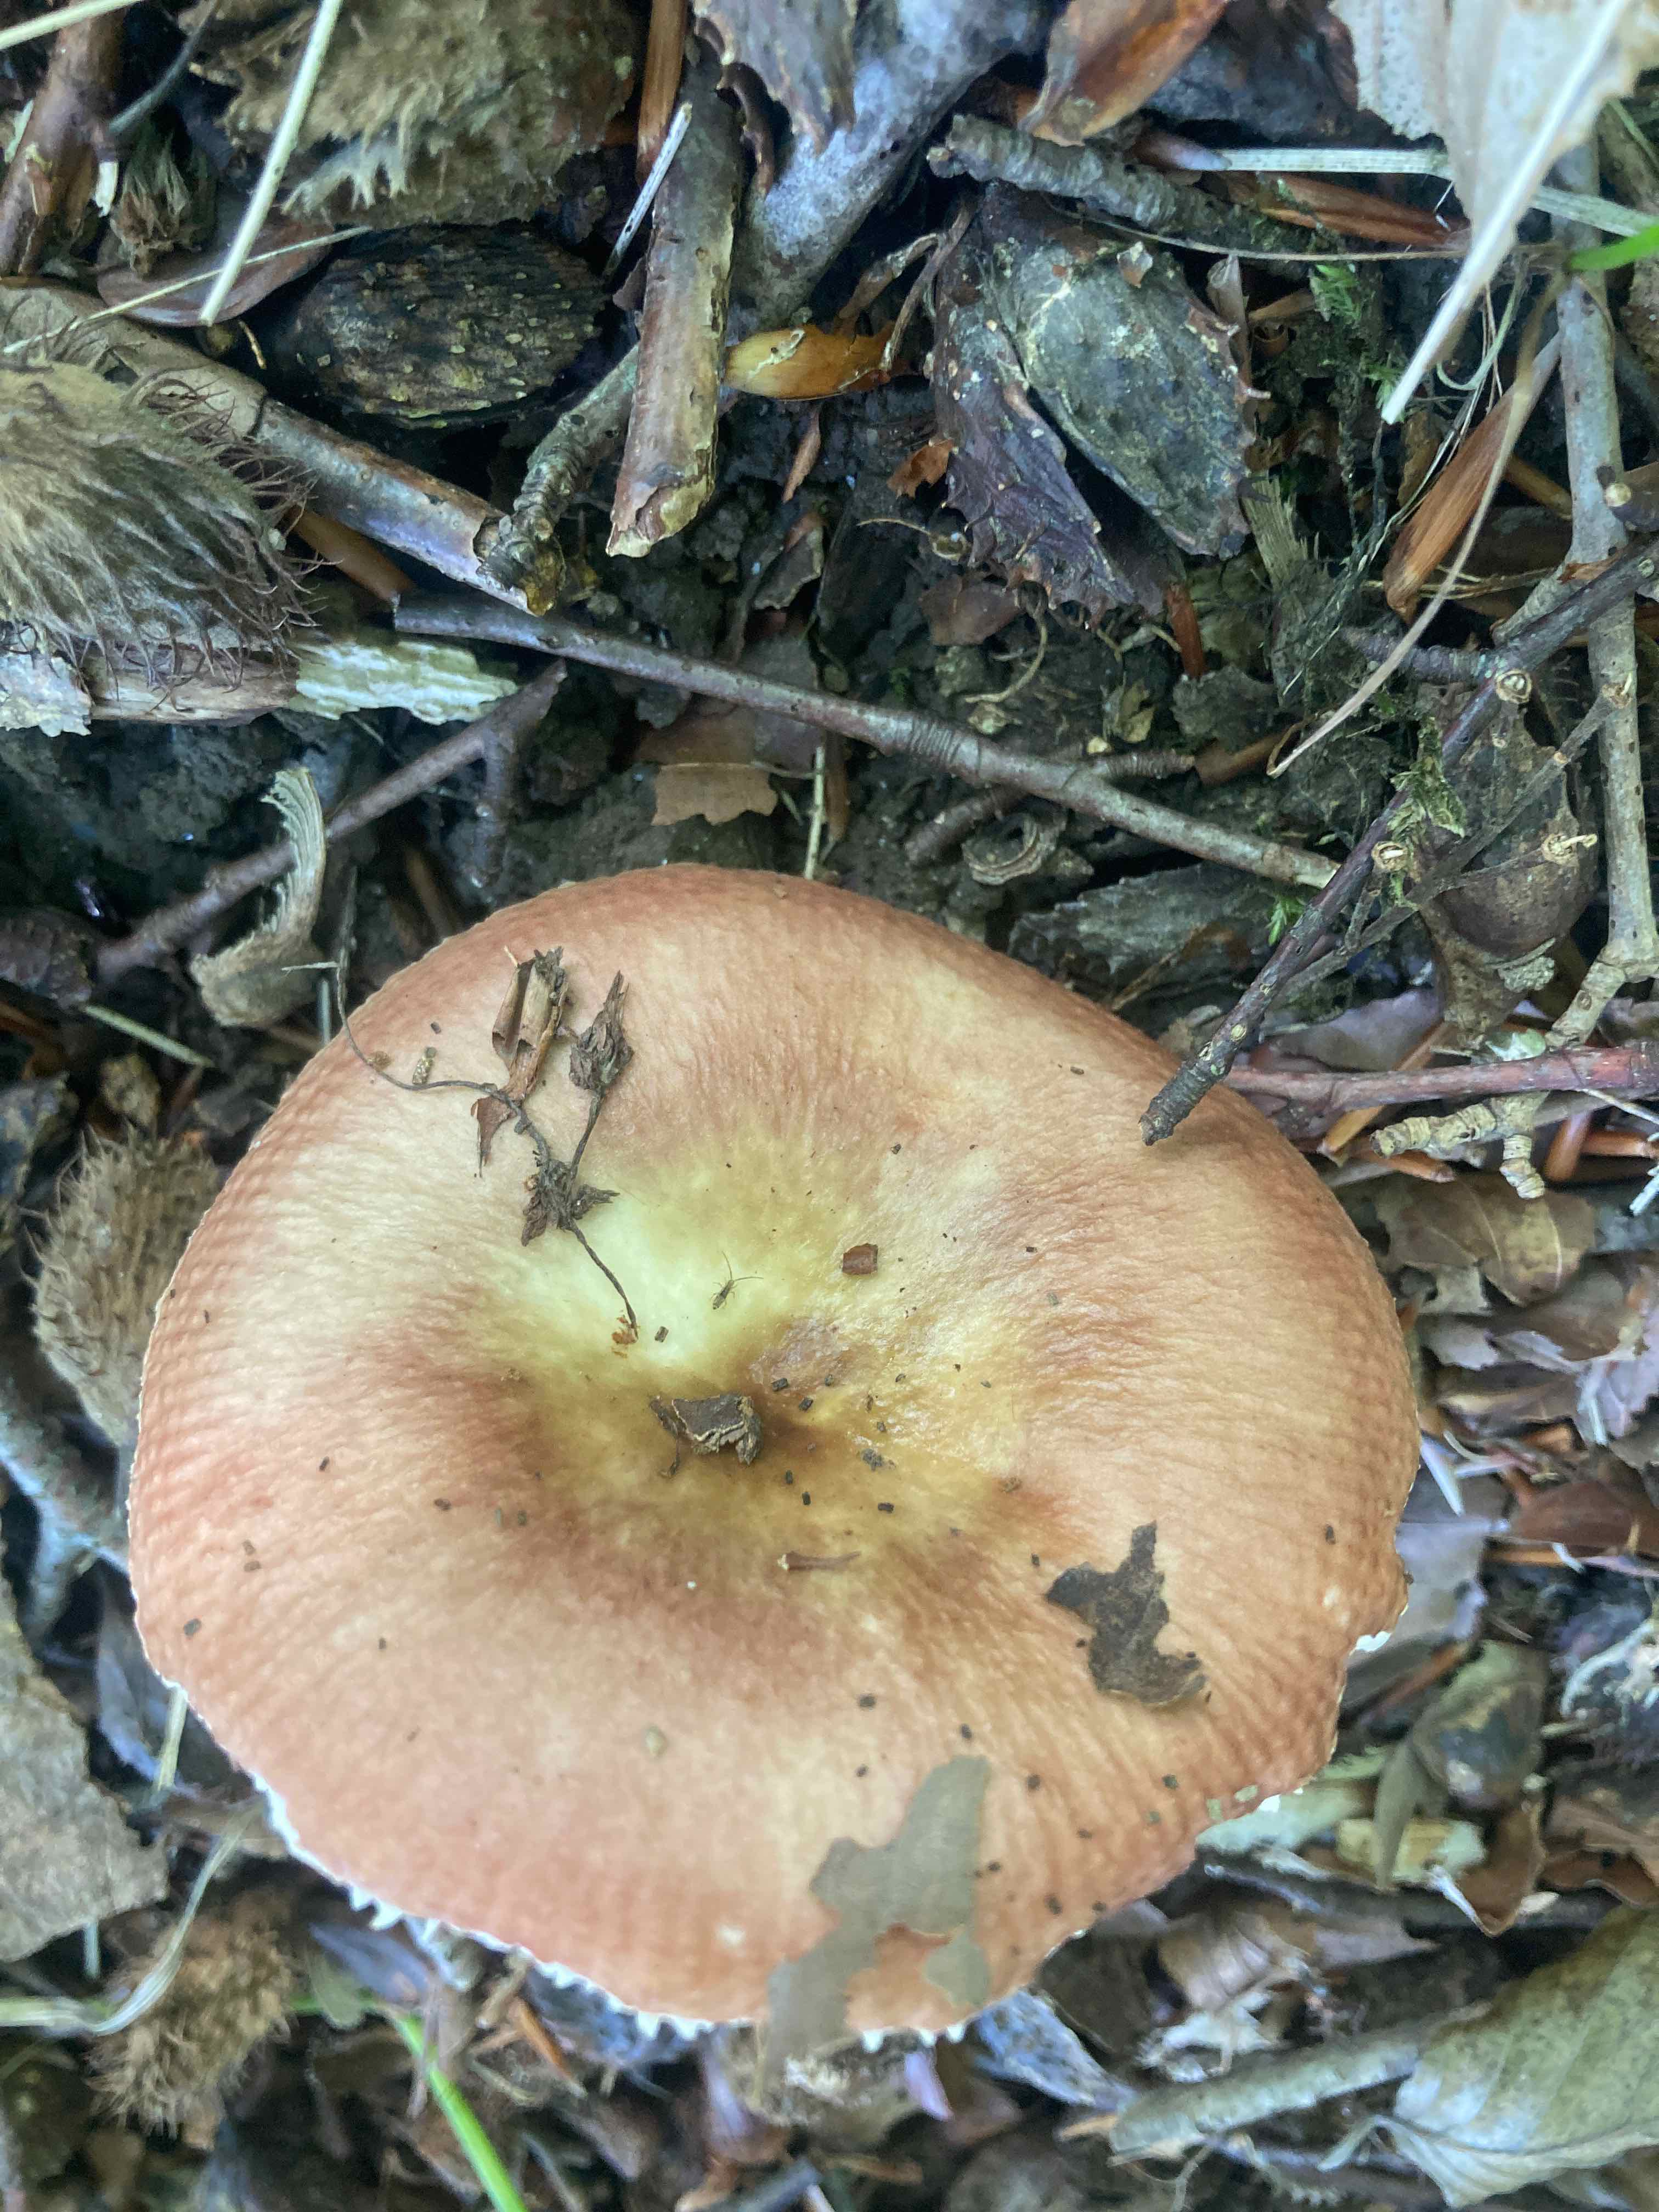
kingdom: Fungi
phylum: Basidiomycota
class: Agaricomycetes
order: Russulales
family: Russulaceae
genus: Russula
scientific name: Russula veternosa
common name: blødkødet skørhat
